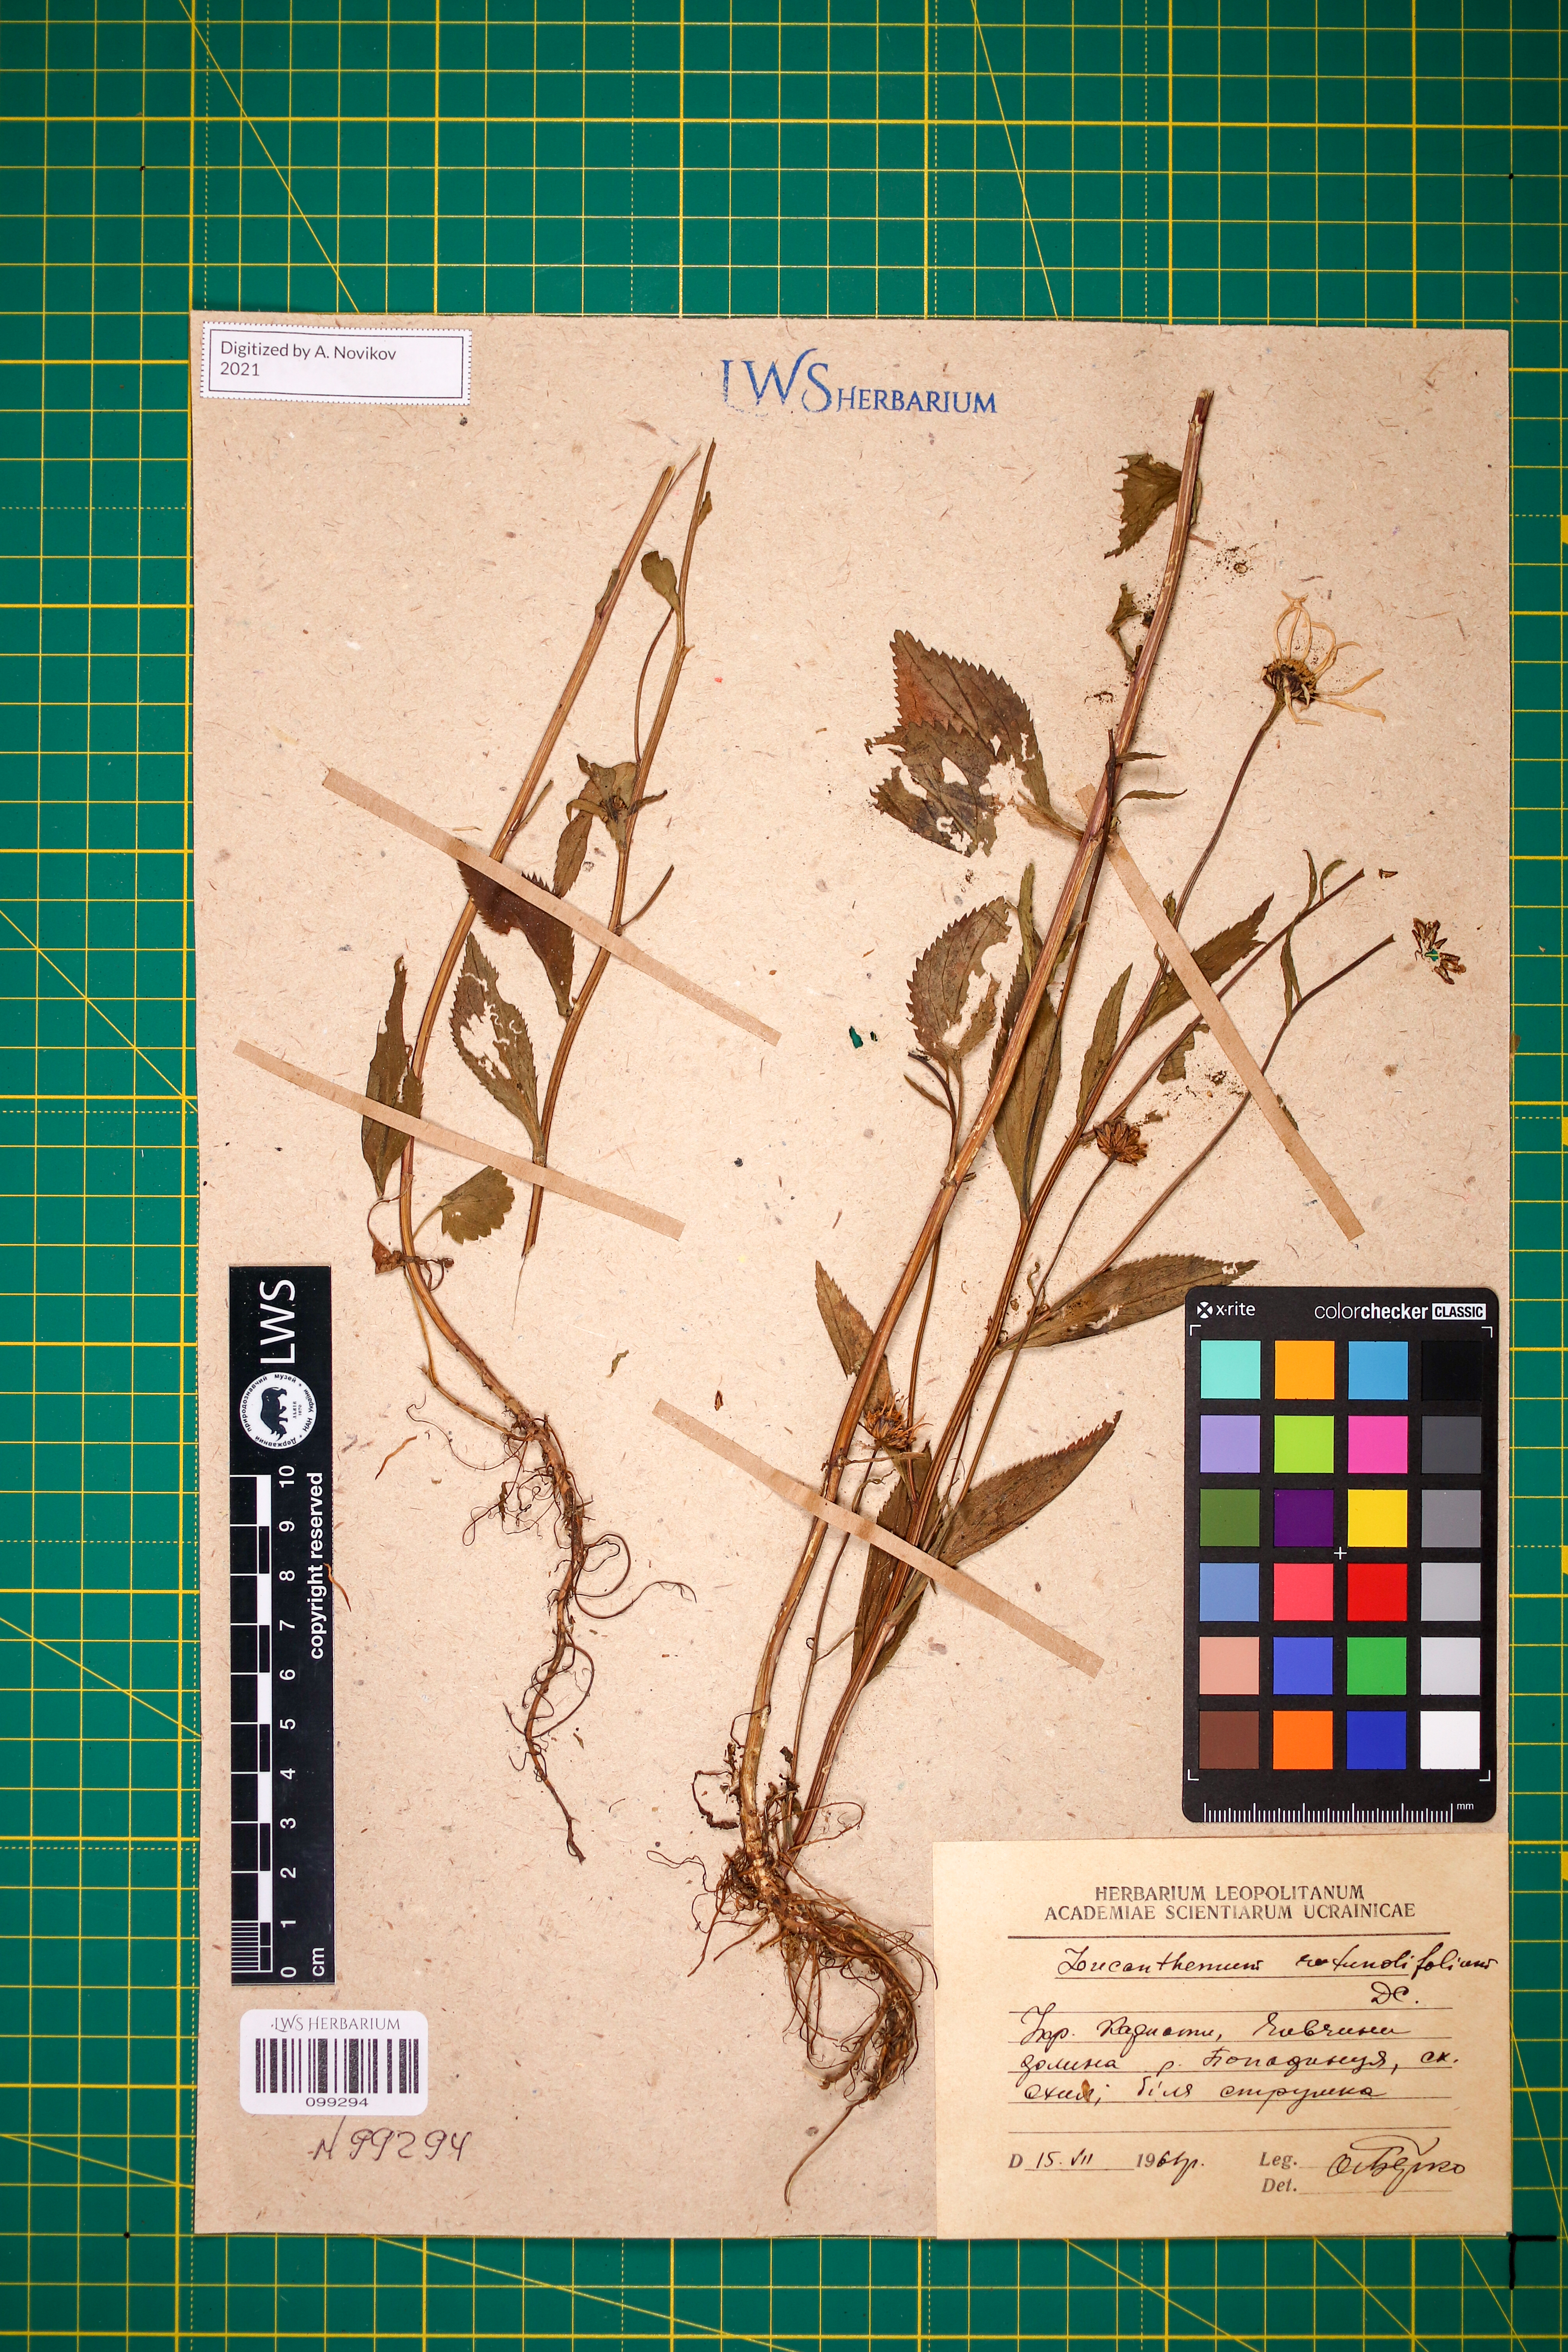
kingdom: Plantae
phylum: Tracheophyta
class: Magnoliopsida
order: Asterales
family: Asteraceae
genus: Leucanthemum
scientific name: Leucanthemum rotundifolium
